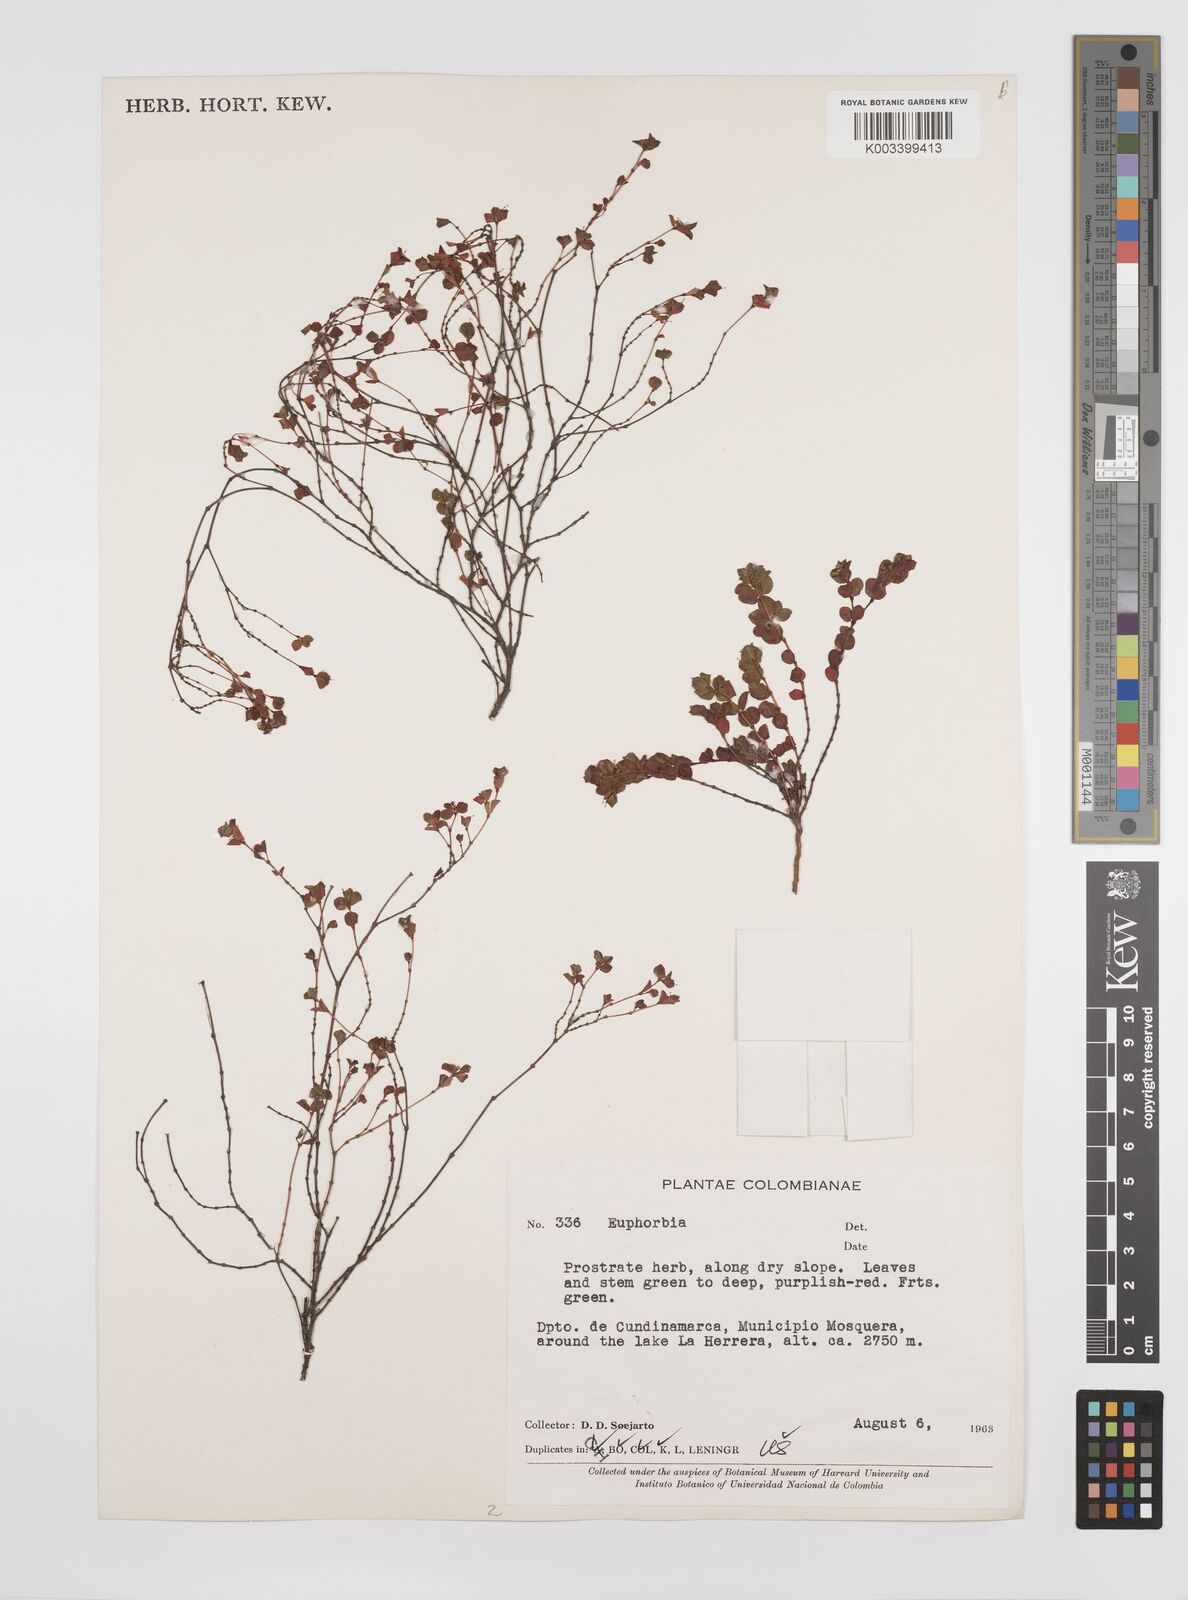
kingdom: Plantae
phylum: Tracheophyta
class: Magnoliopsida
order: Malpighiales
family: Euphorbiaceae
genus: Euphorbia
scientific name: Euphorbia
